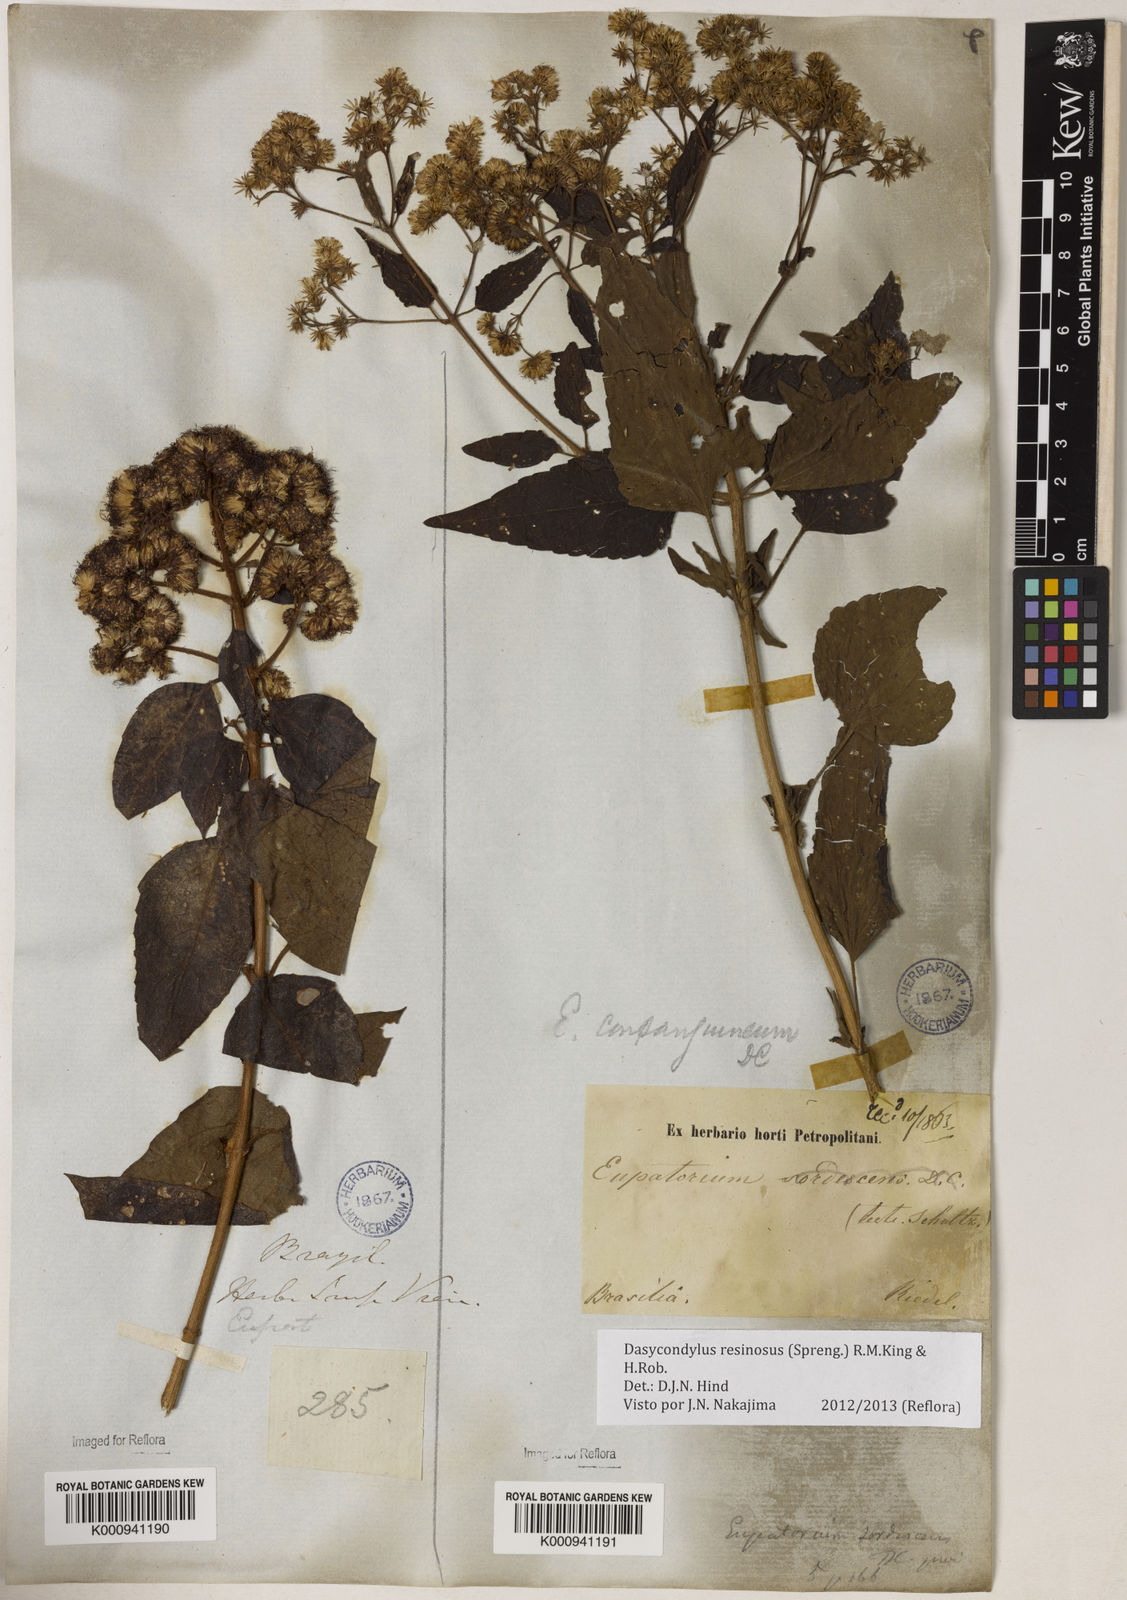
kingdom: Plantae
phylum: Tracheophyta
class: Magnoliopsida
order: Asterales
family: Asteraceae
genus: Dasycondylus
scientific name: Dasycondylus resinosus
